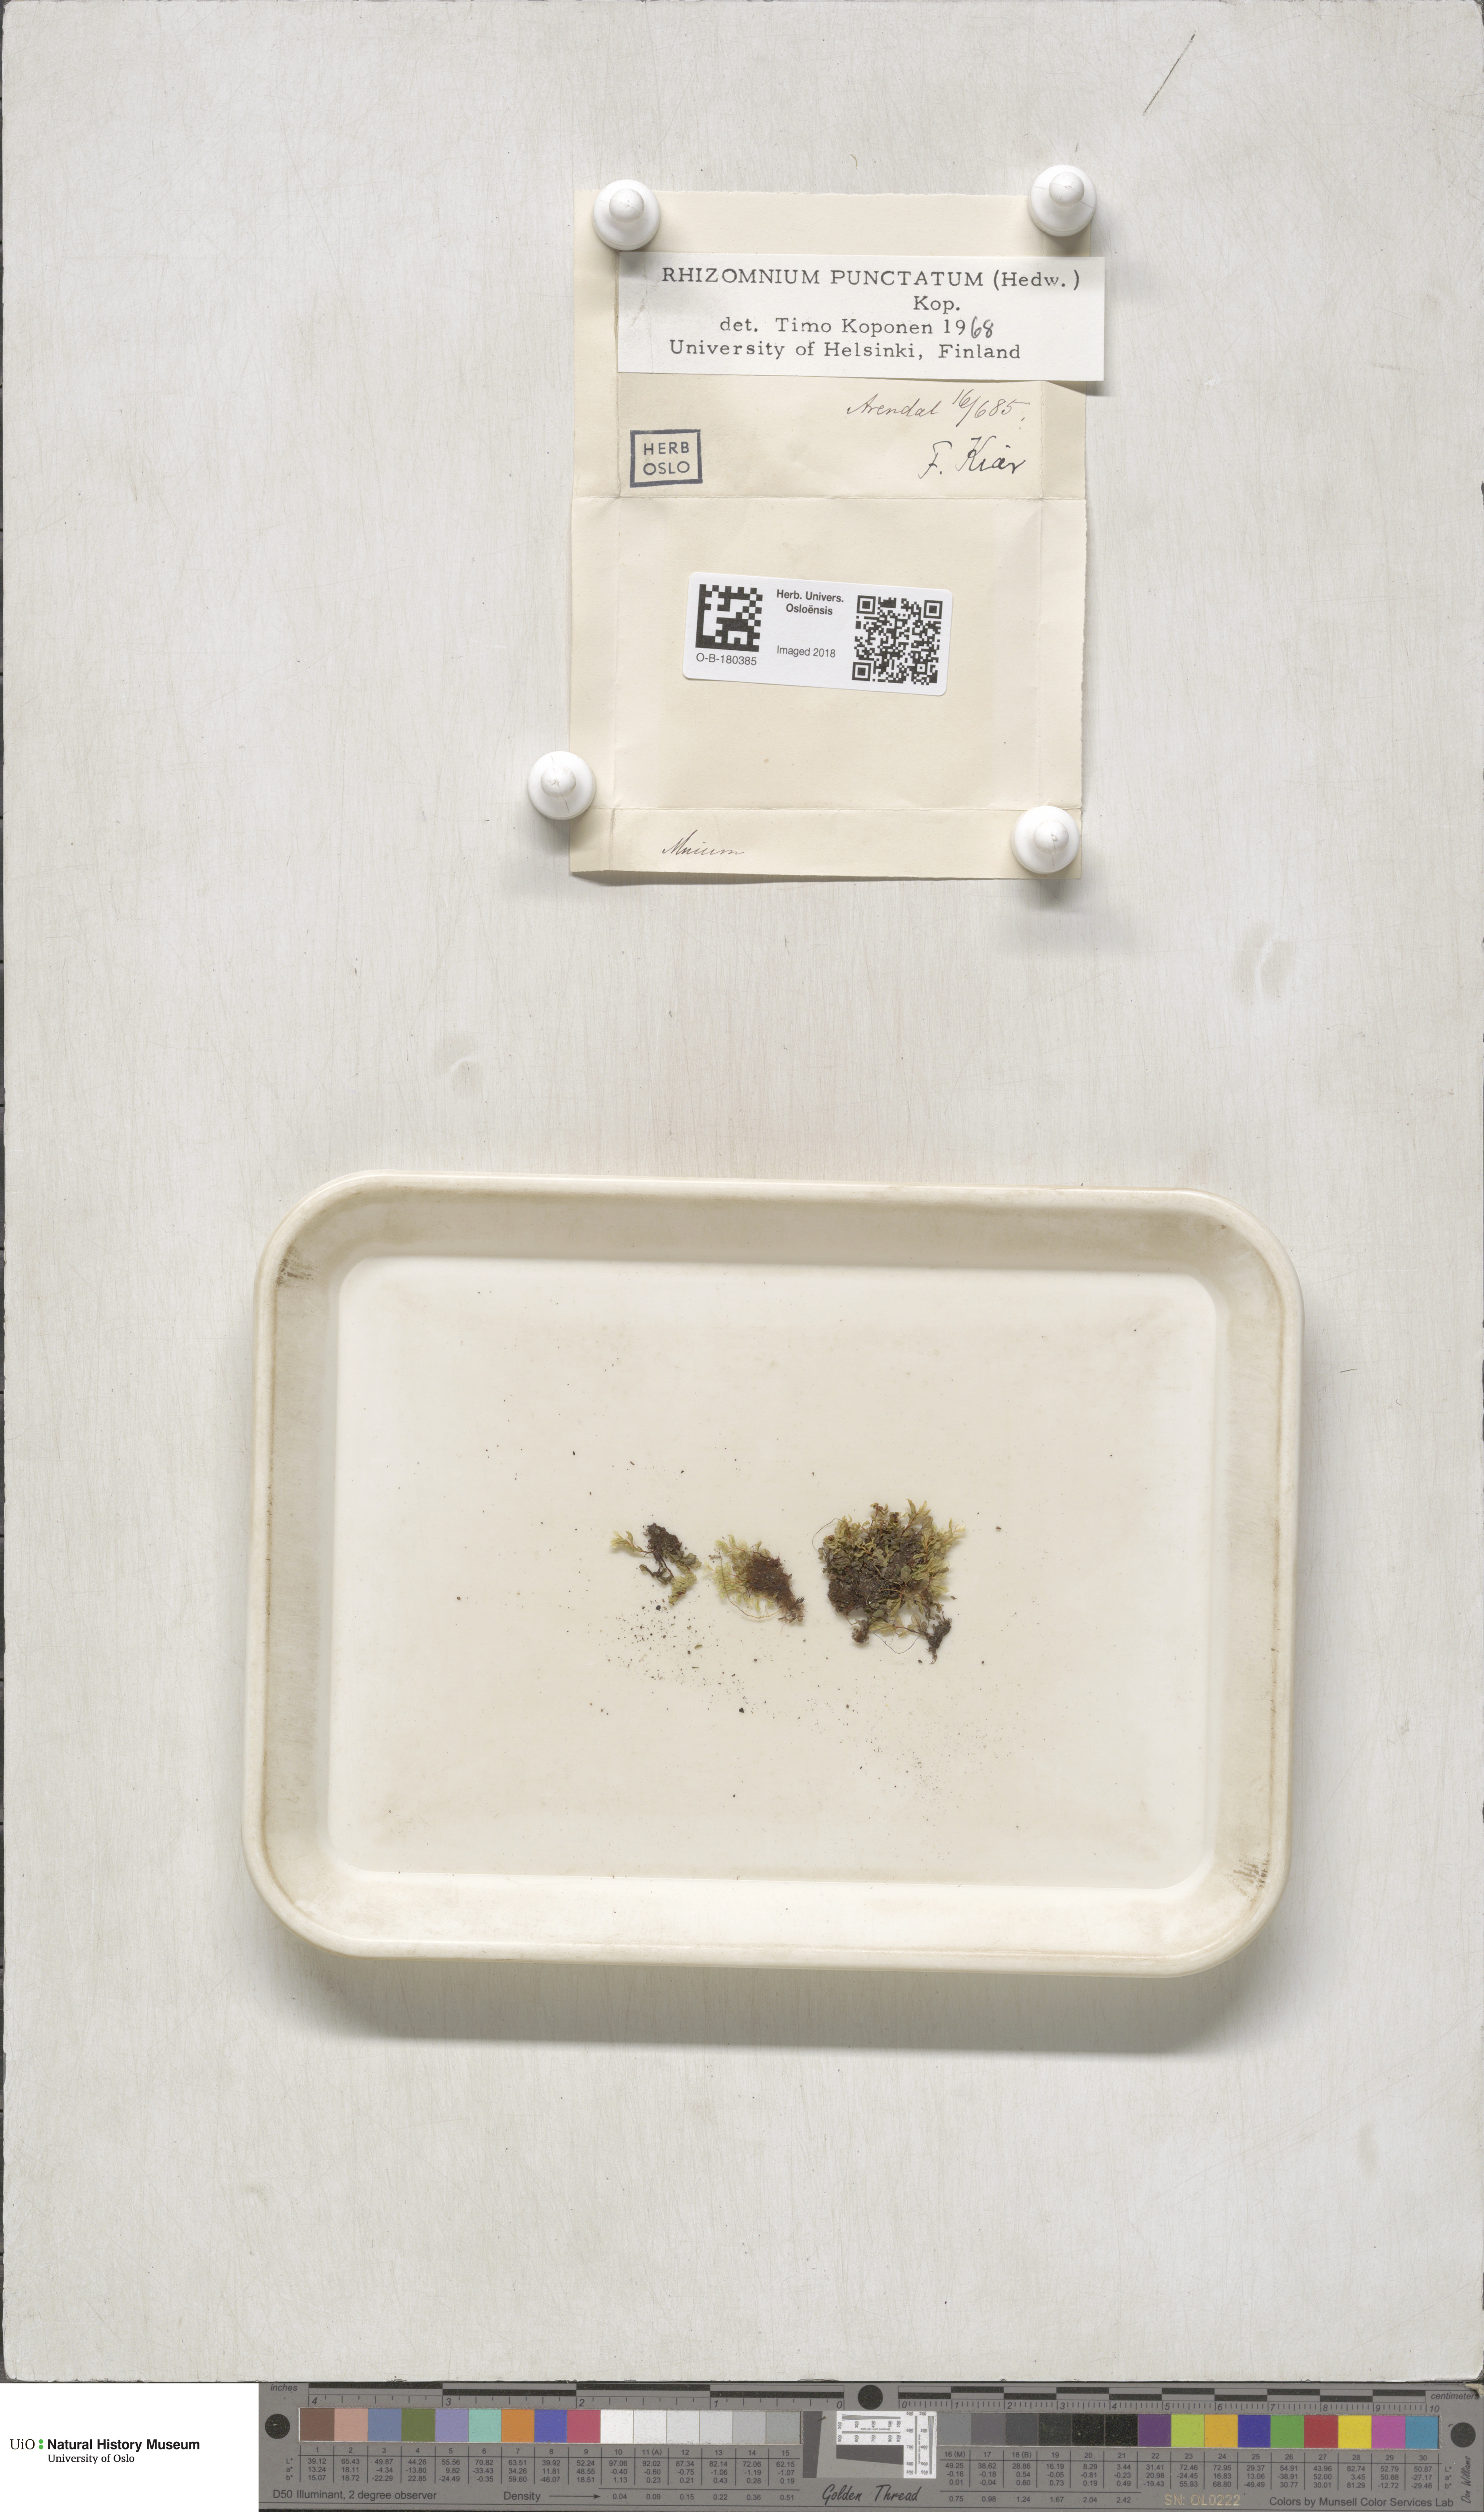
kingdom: Plantae
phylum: Bryophyta
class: Bryopsida
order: Bryales
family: Mniaceae
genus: Rhizomnium
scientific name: Rhizomnium punctatum
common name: Dotted leafy moss
